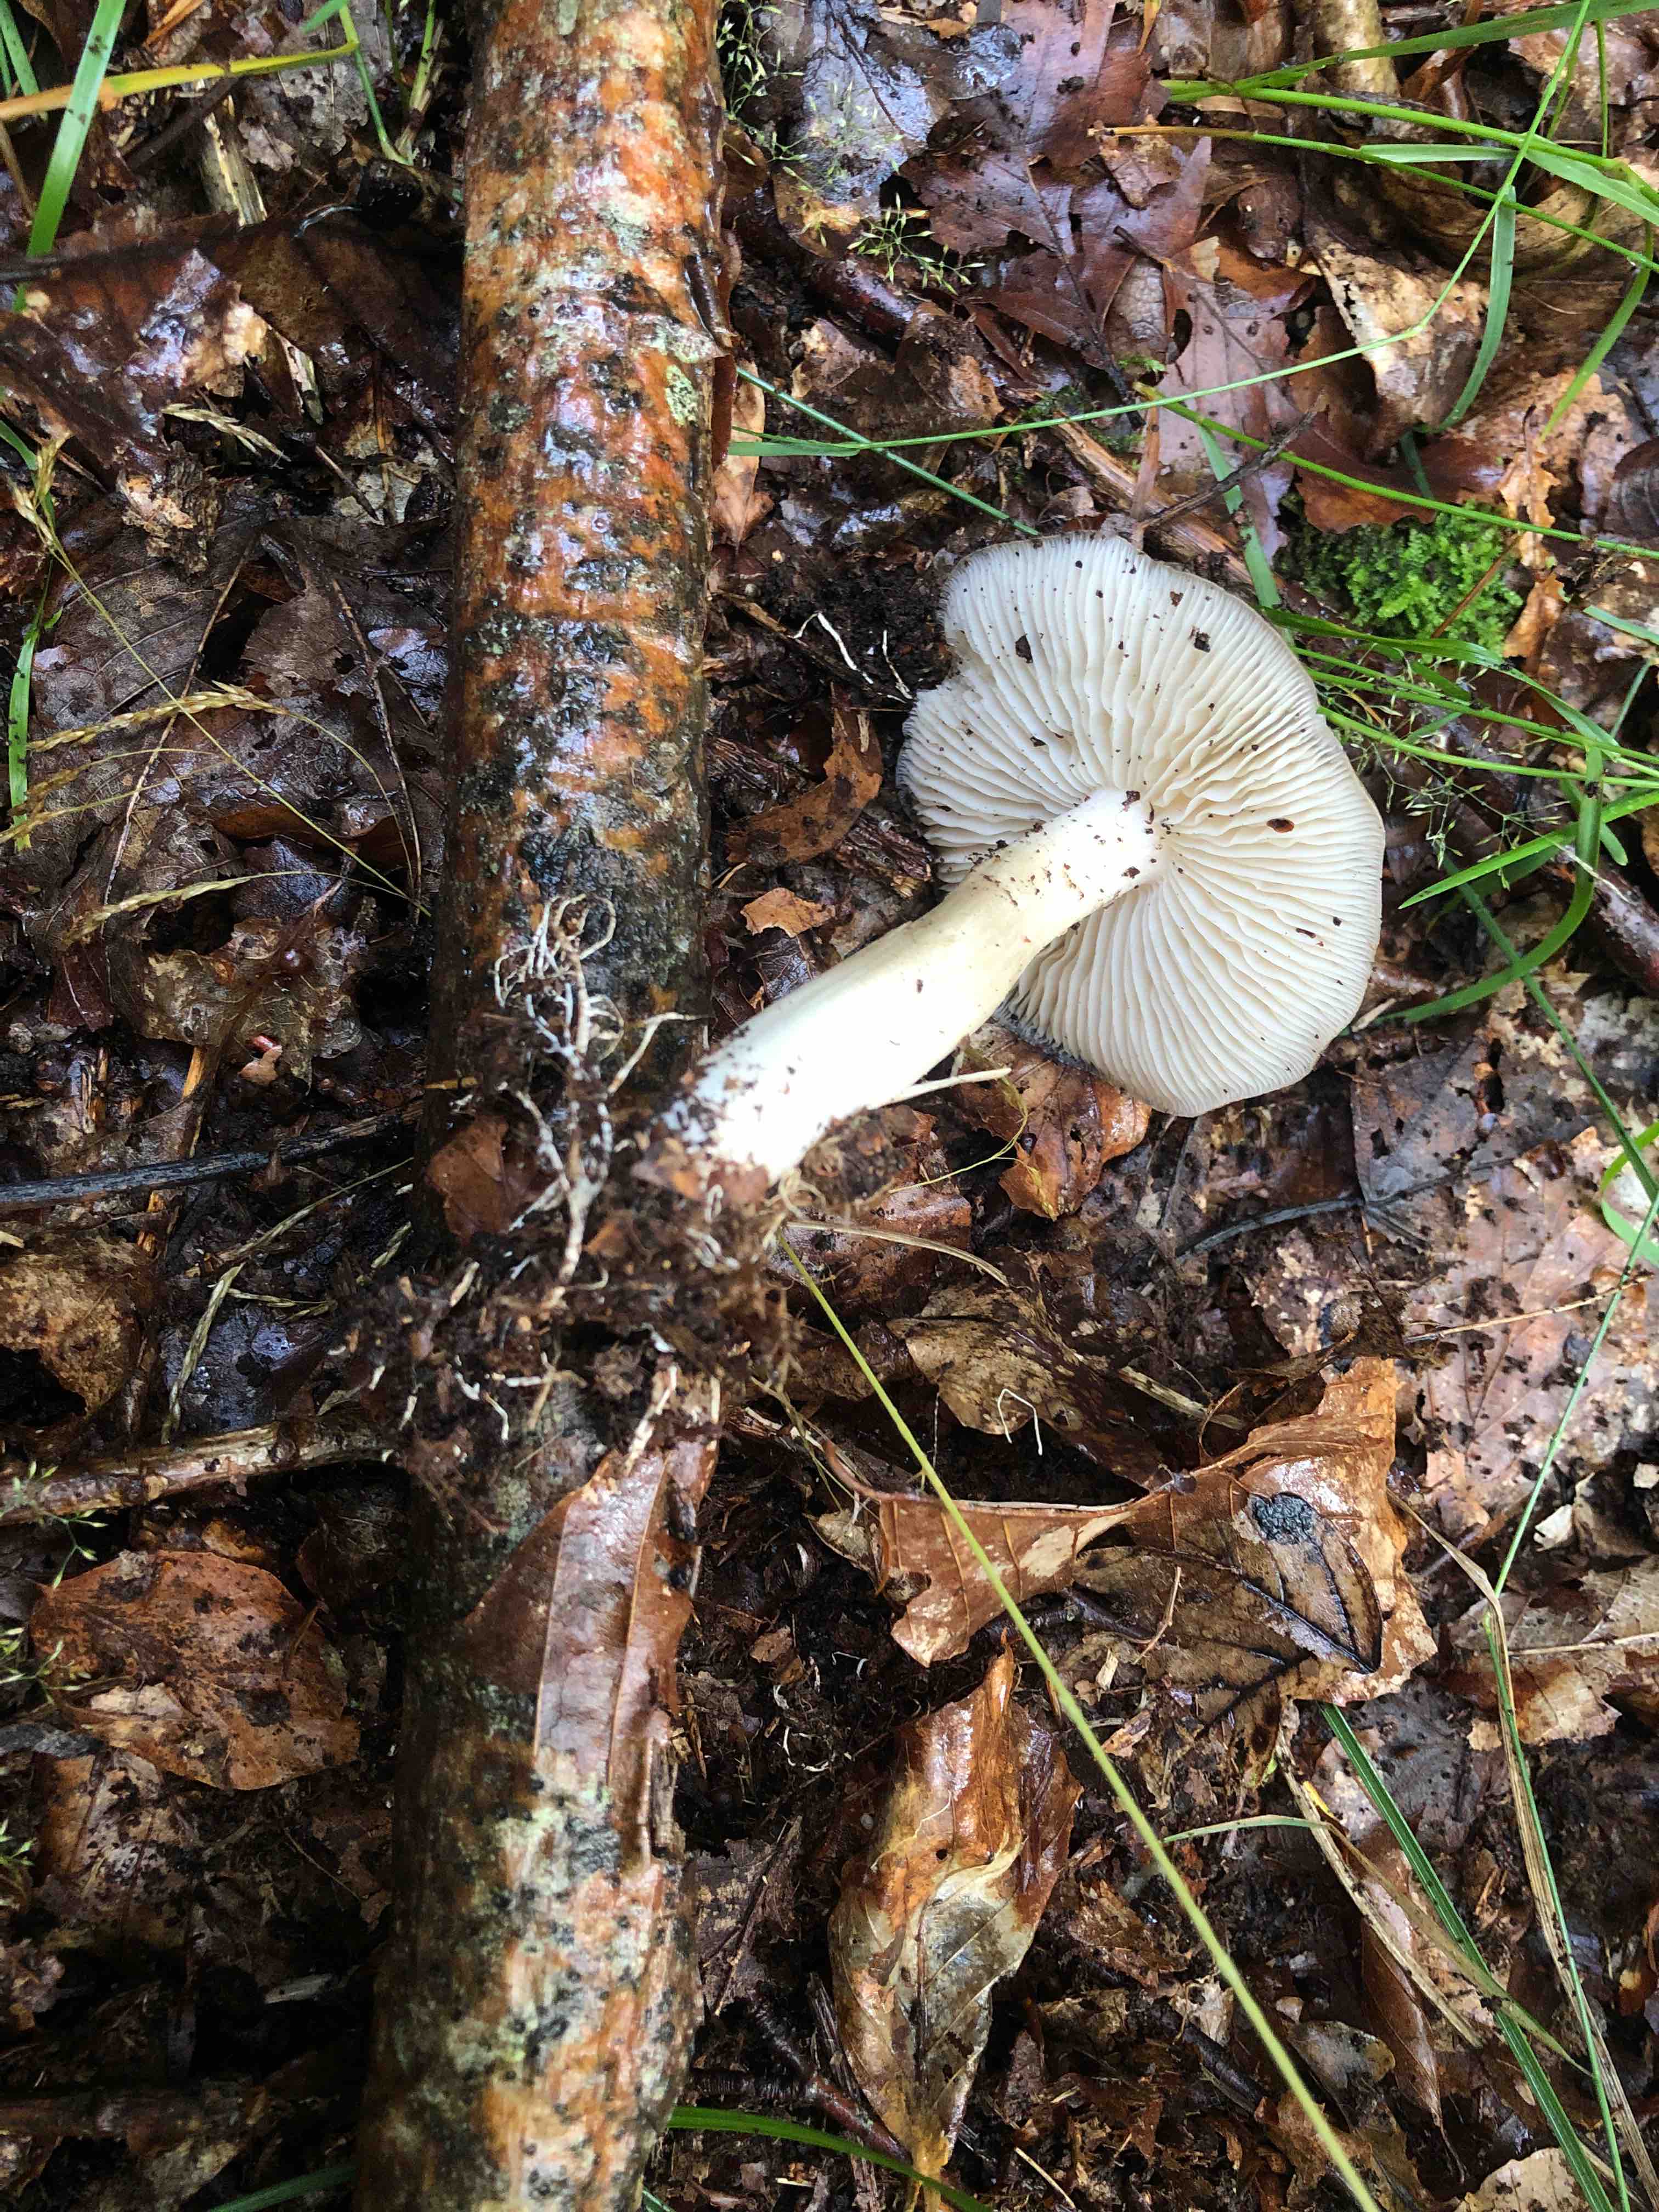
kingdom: Fungi
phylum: Basidiomycota
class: Agaricomycetes
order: Agaricales
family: Tricholomataceae
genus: Megacollybia
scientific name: Megacollybia platyphylla
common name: bredbladet væbnerhat
